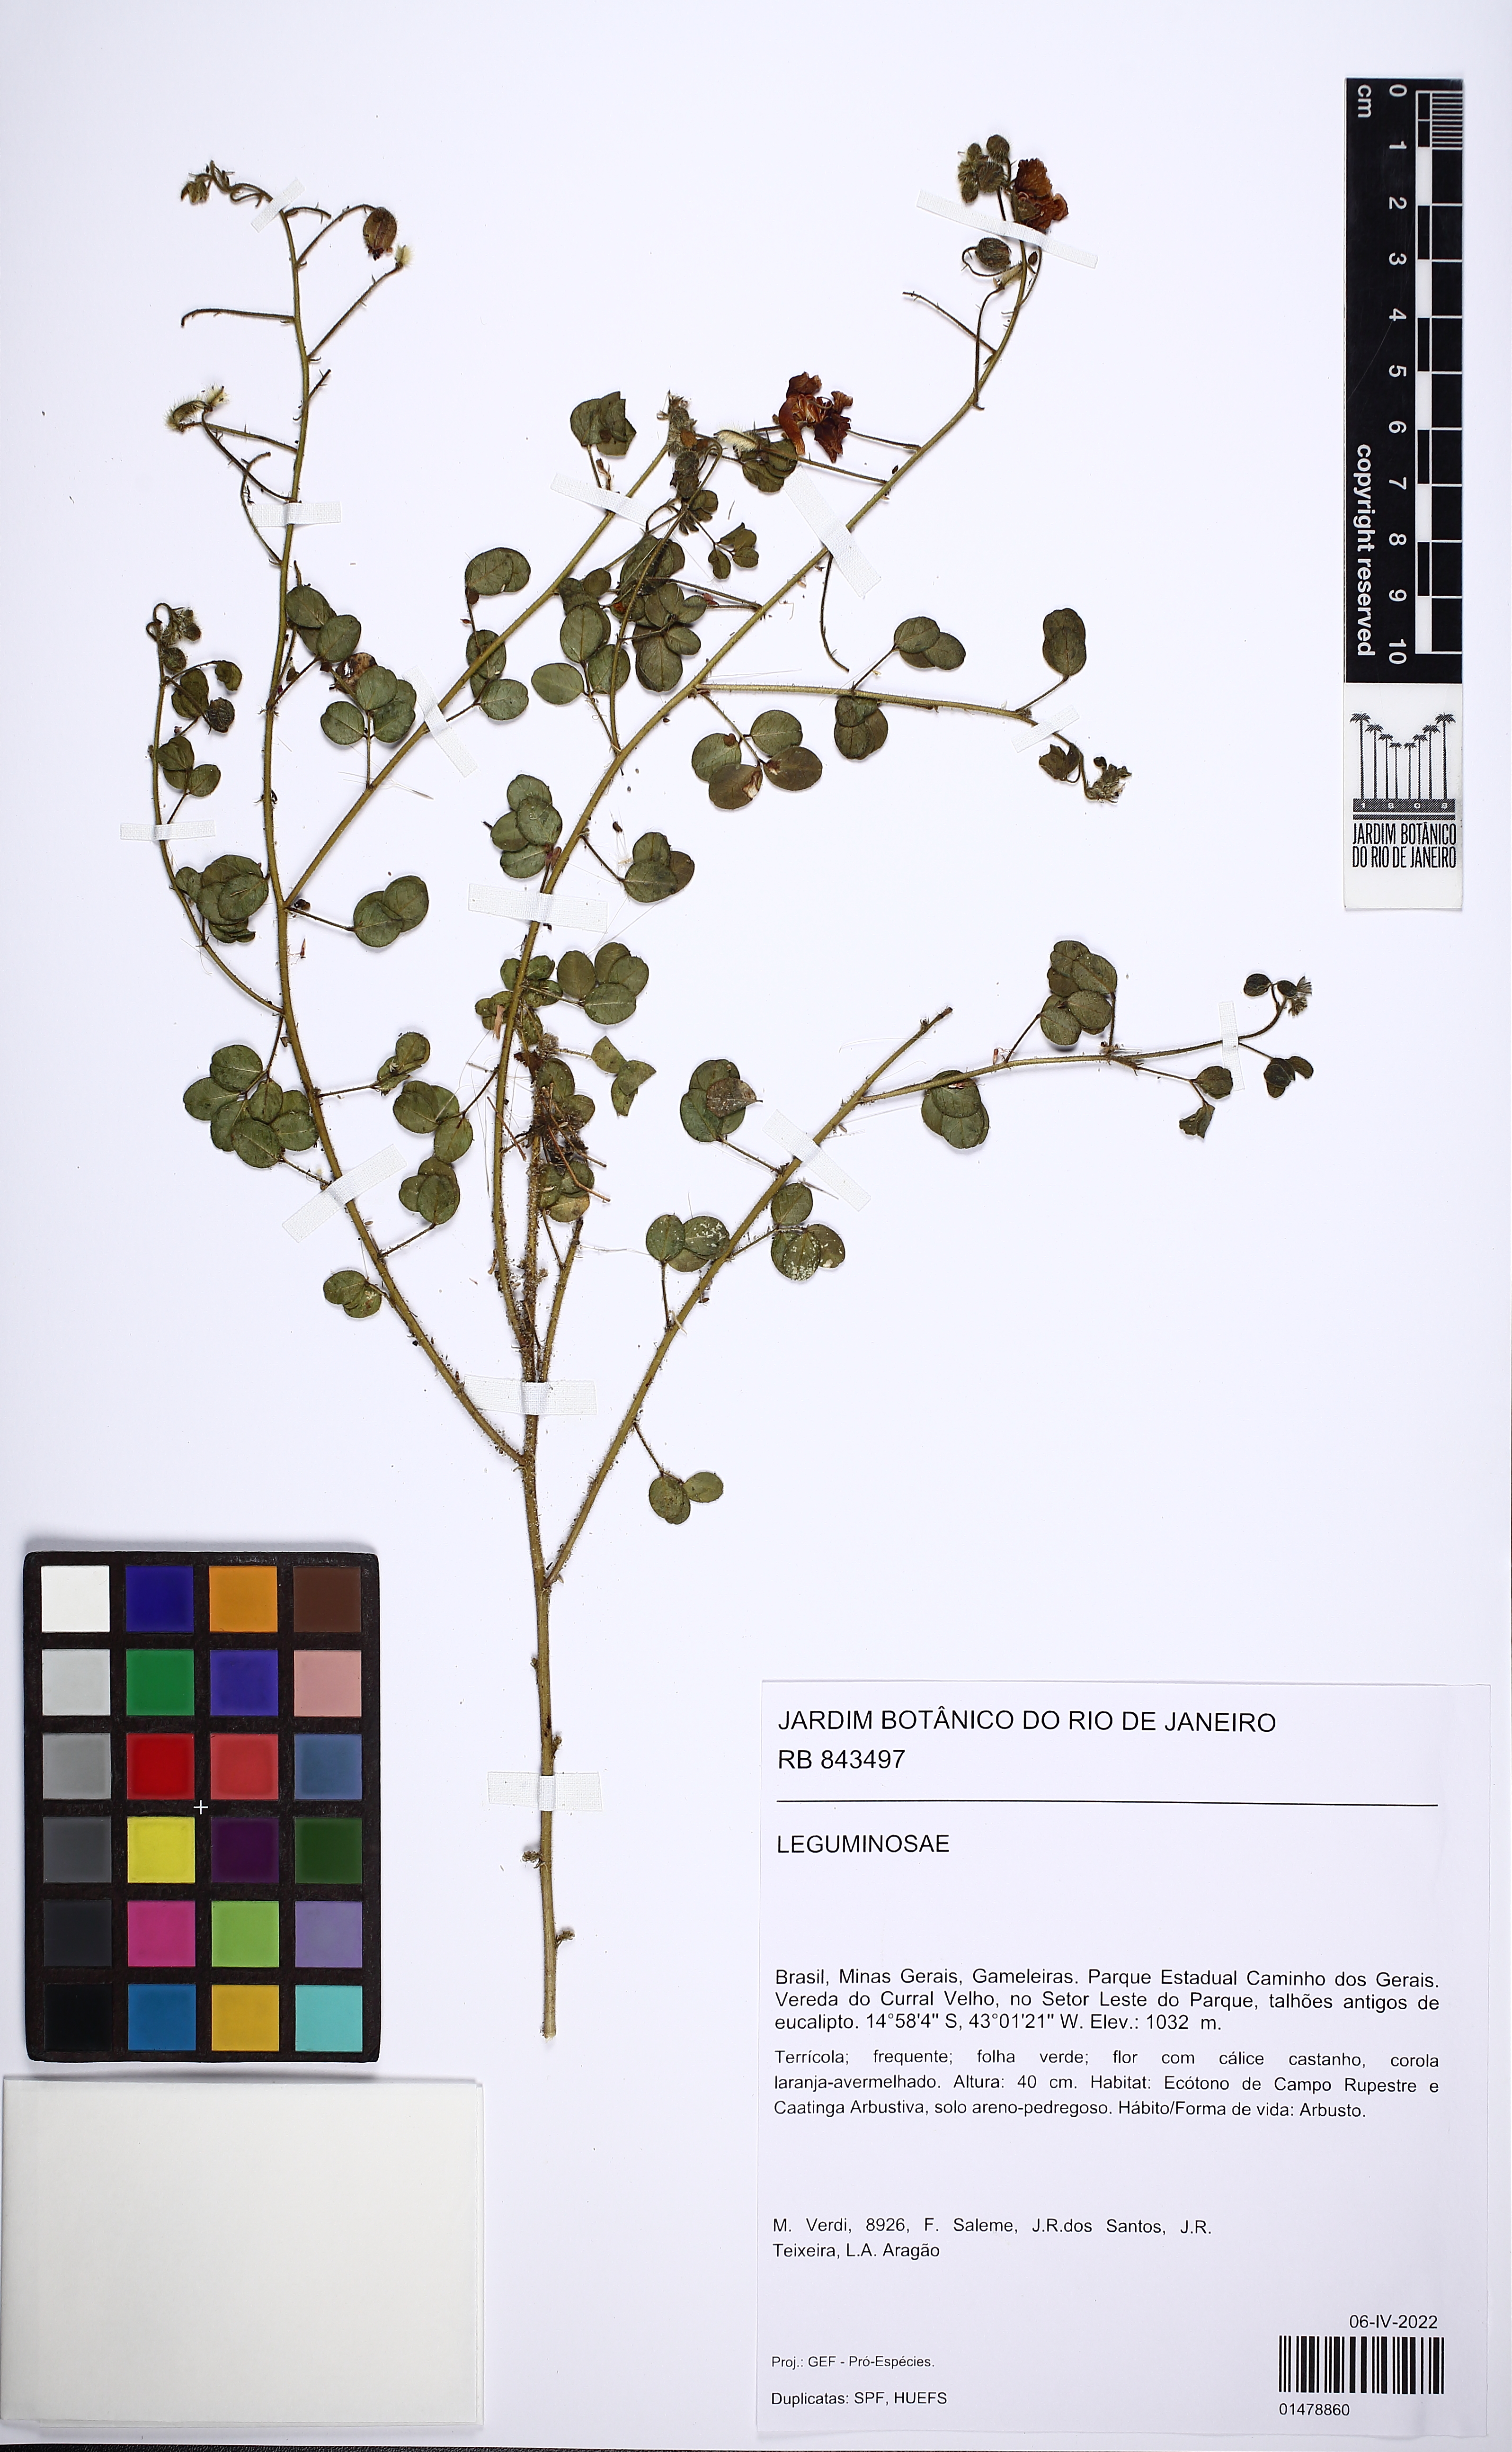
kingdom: Plantae
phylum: Tracheophyta
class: Magnoliopsida
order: Fabales
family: Fabaceae
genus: Chamaecrista
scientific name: Chamaecrista
